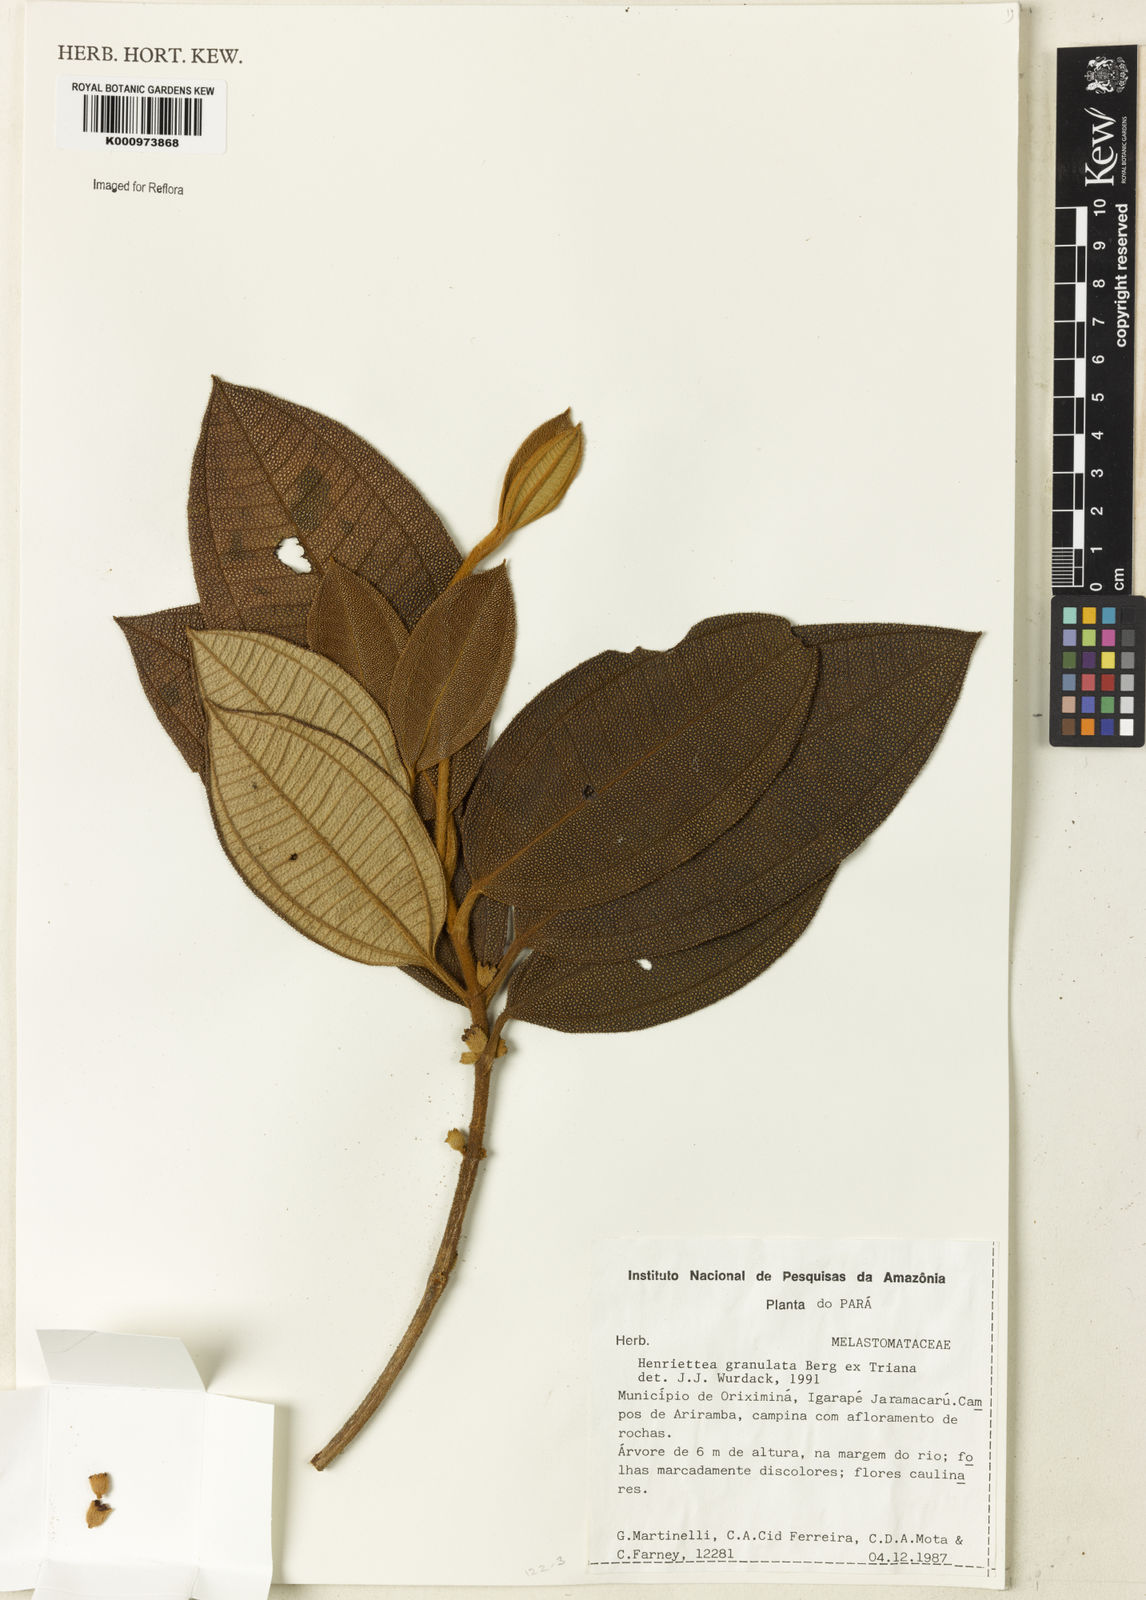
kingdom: Plantae
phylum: Tracheophyta
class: Magnoliopsida
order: Myrtales
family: Melastomataceae
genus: Henriettea
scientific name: Henriettea granulata
